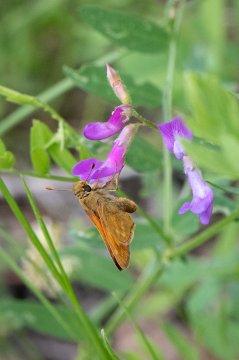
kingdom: Animalia
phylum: Arthropoda
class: Insecta
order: Lepidoptera
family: Hesperiidae
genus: Hesperia
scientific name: Hesperia sassacus
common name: Sassacus Skipper
